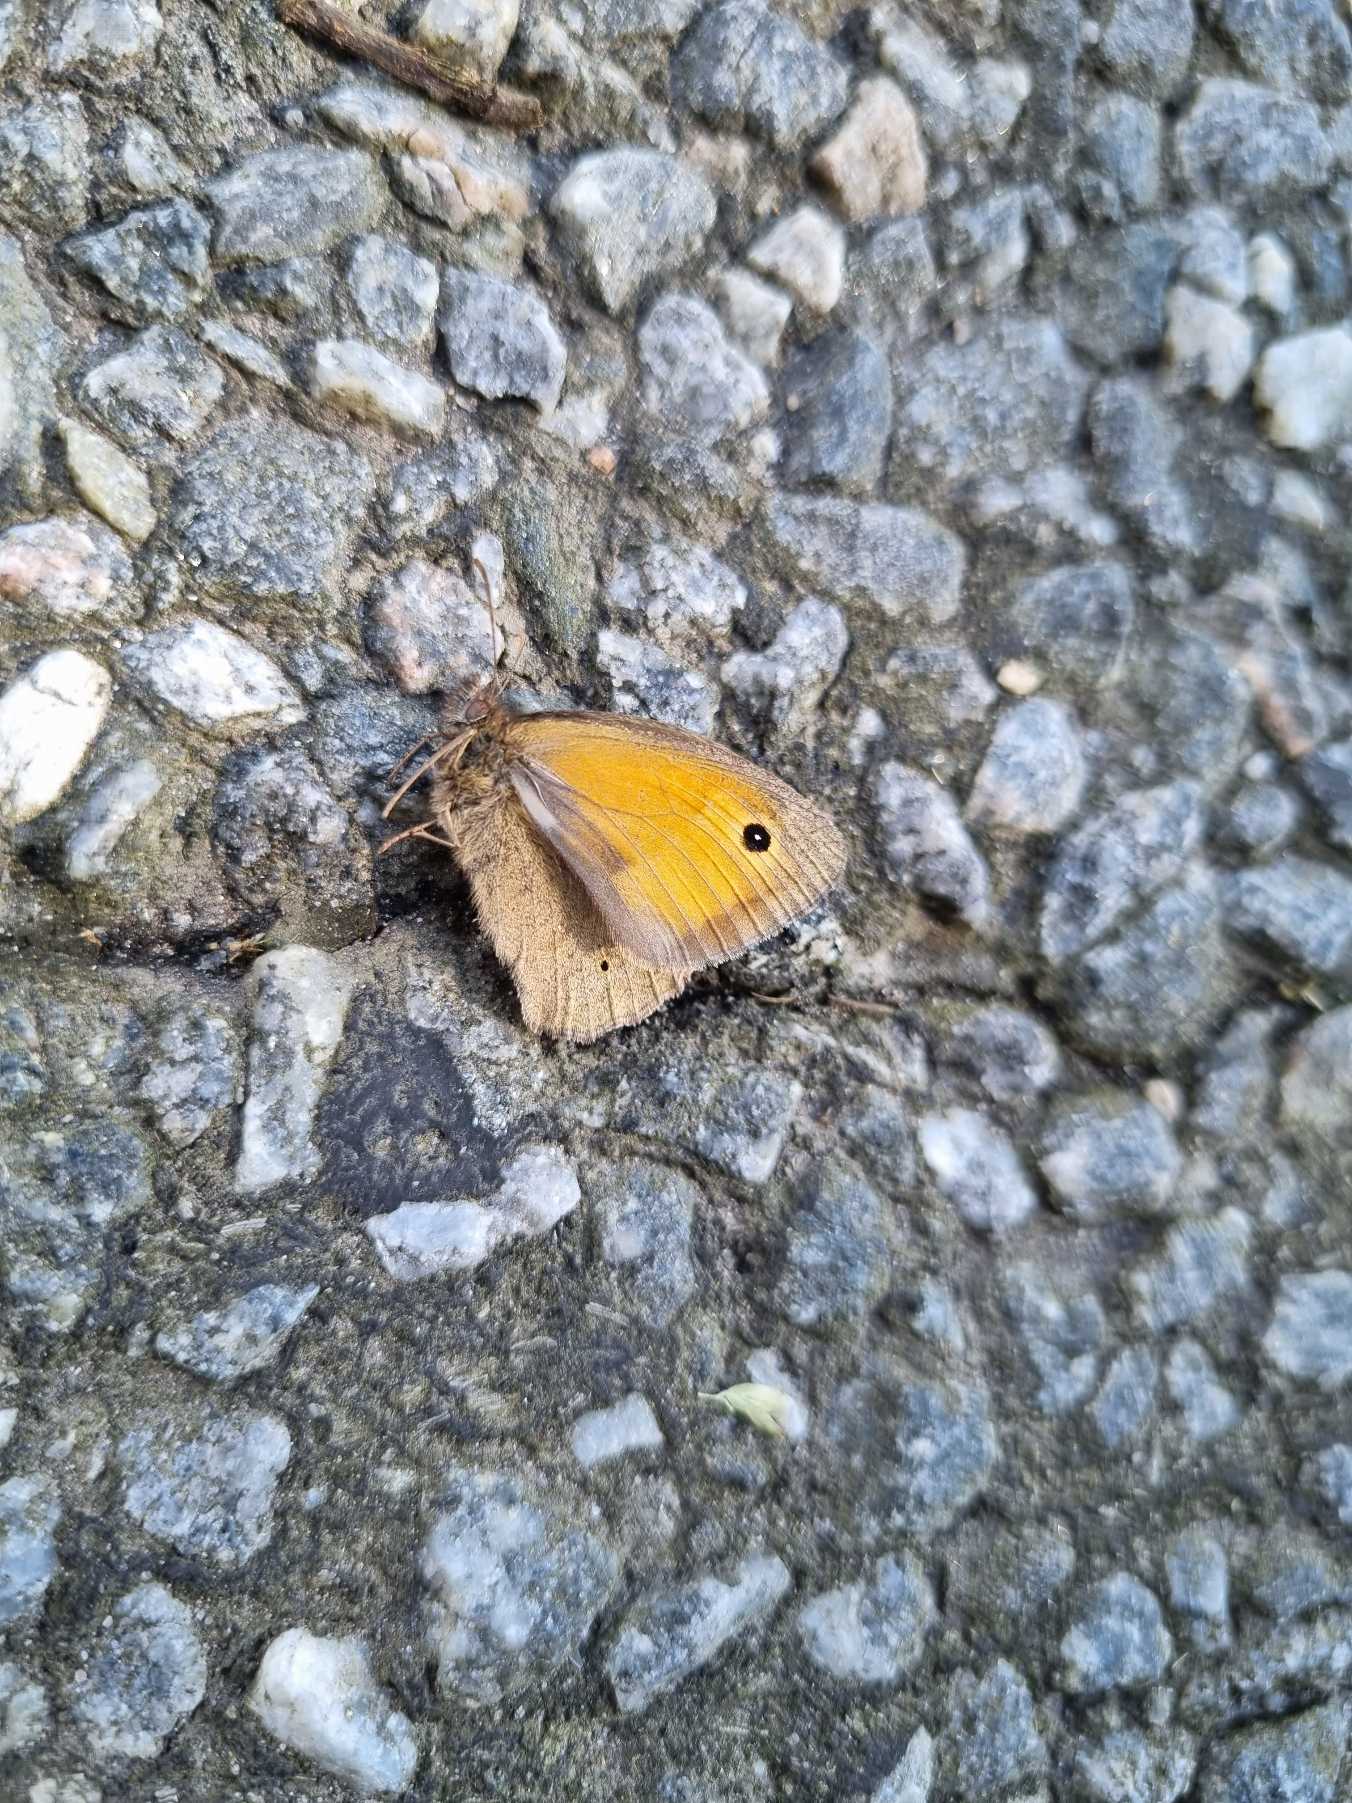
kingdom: Animalia
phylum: Arthropoda
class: Insecta
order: Lepidoptera
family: Nymphalidae
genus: Maniola
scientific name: Maniola jurtina
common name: Græsrandøje
